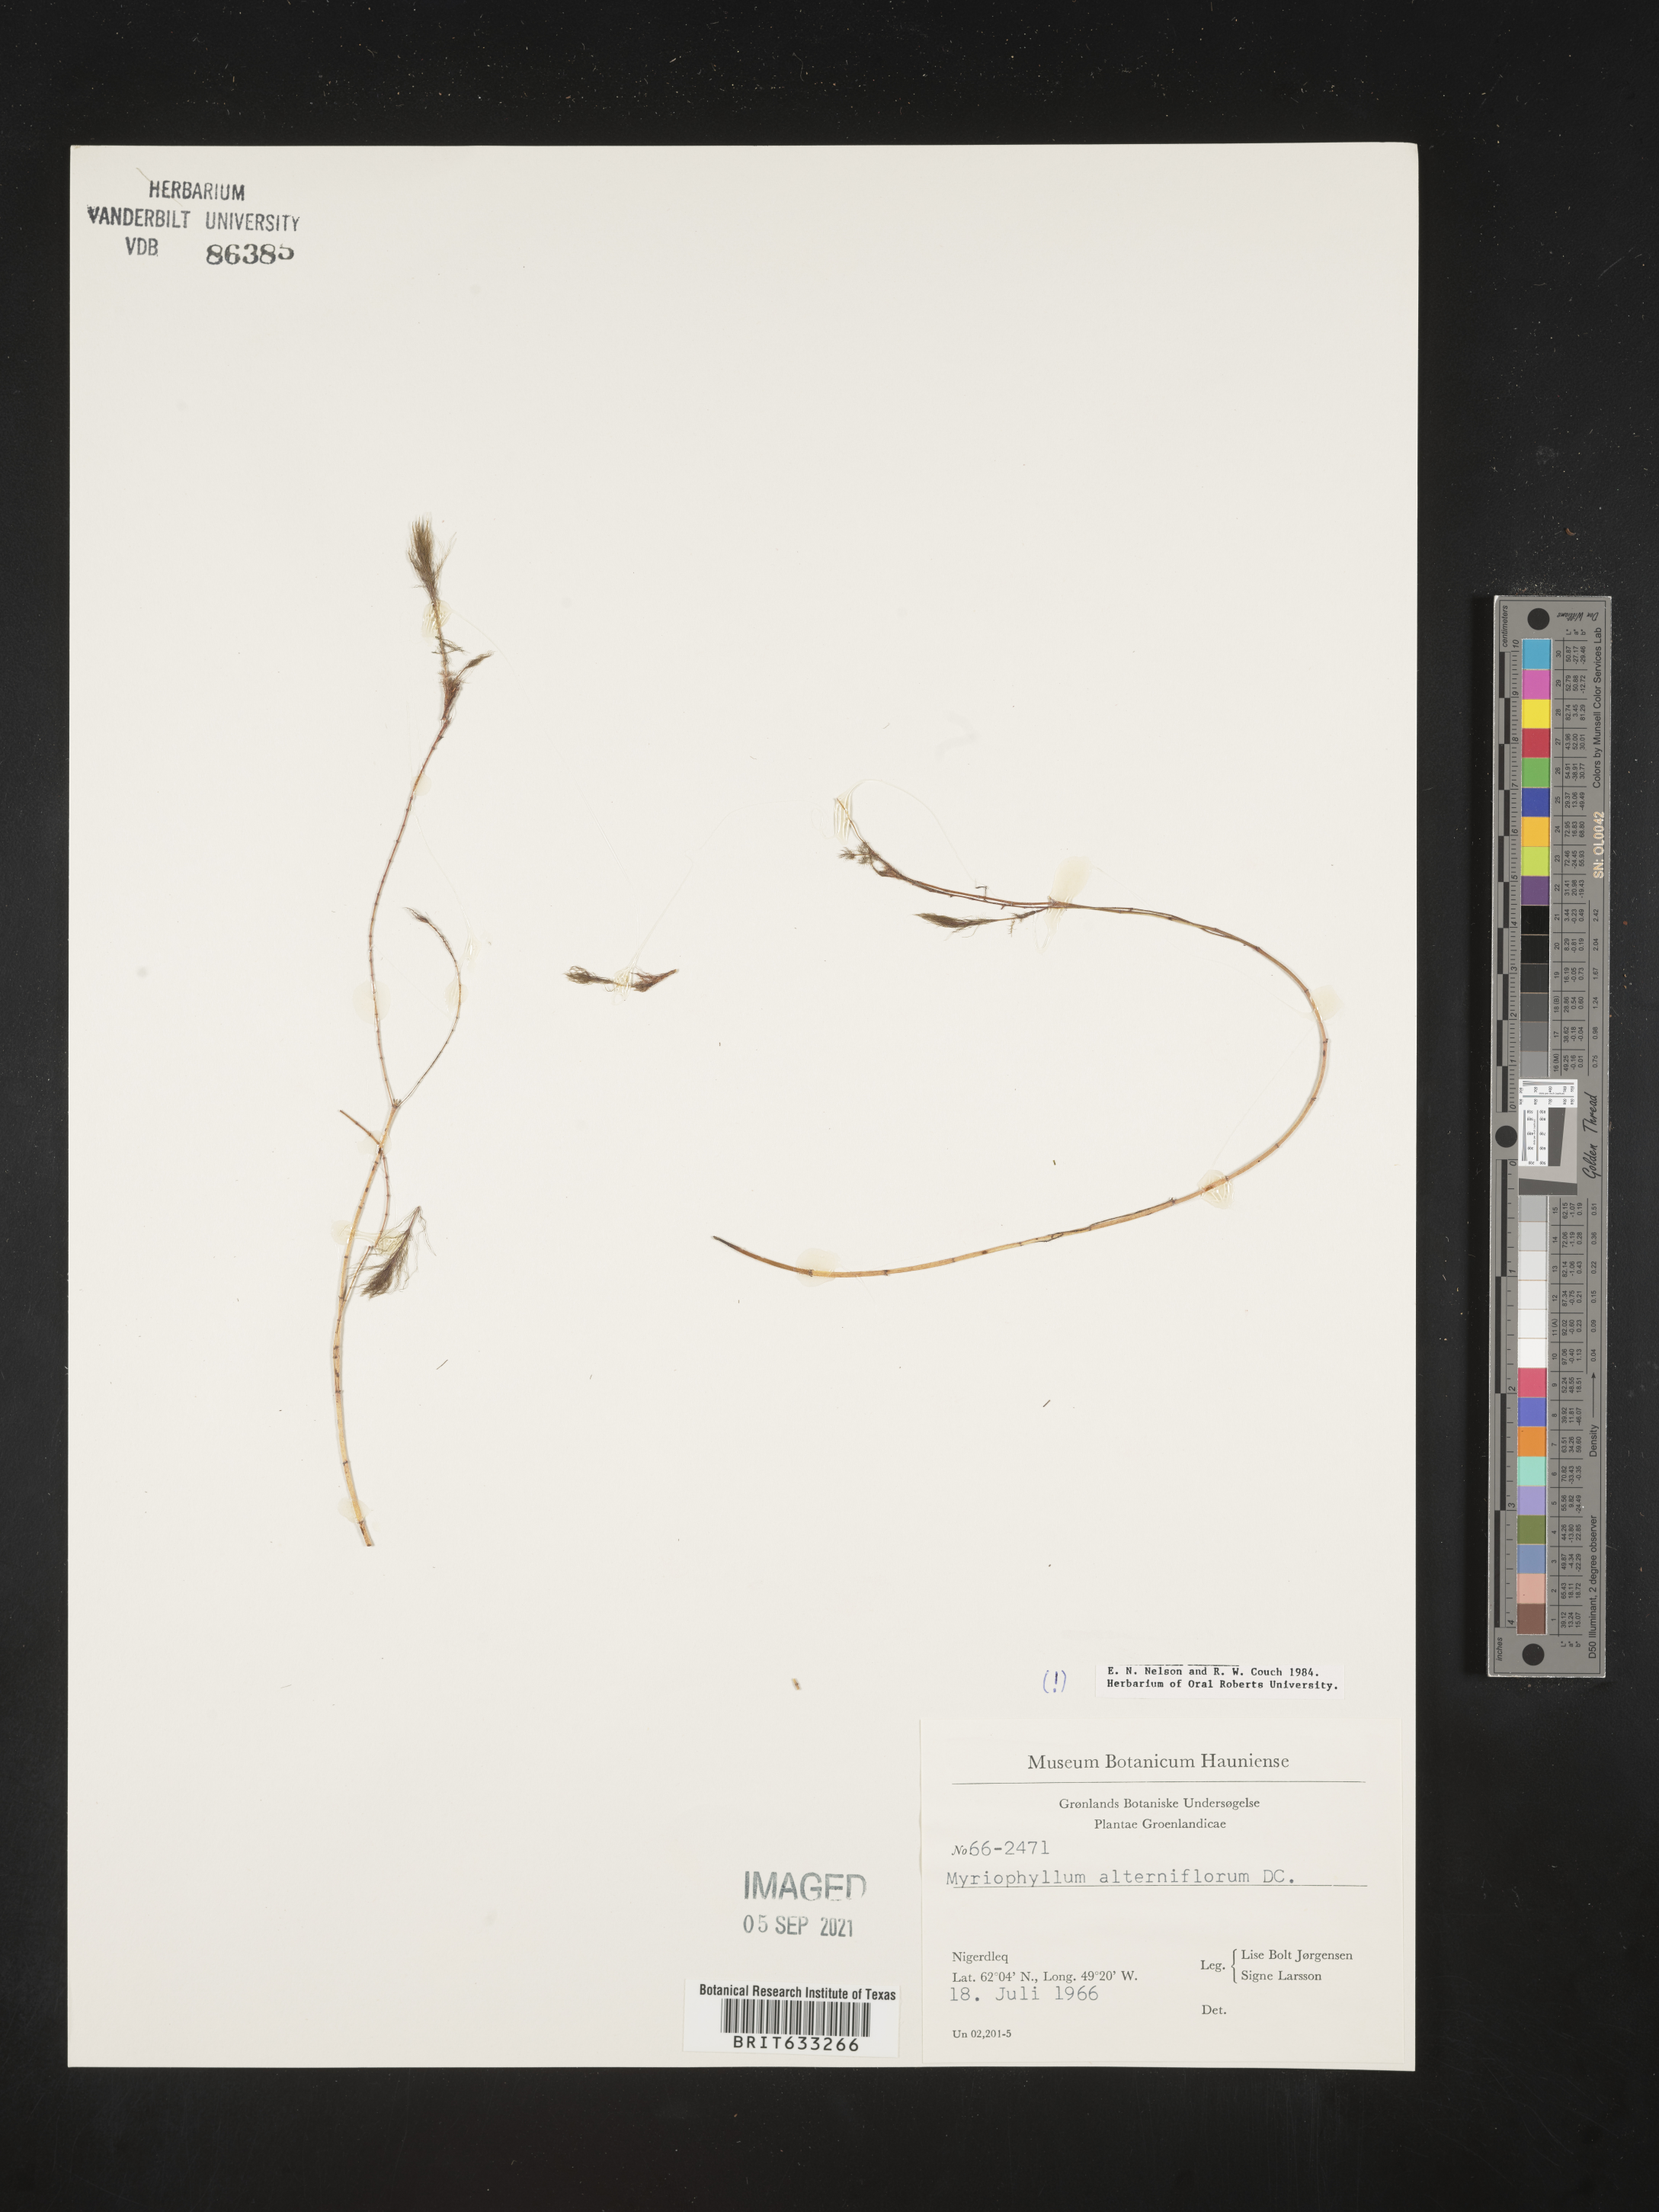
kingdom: Plantae
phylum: Tracheophyta
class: Magnoliopsida
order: Saxifragales
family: Haloragaceae
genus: Myriophyllum
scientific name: Myriophyllum
